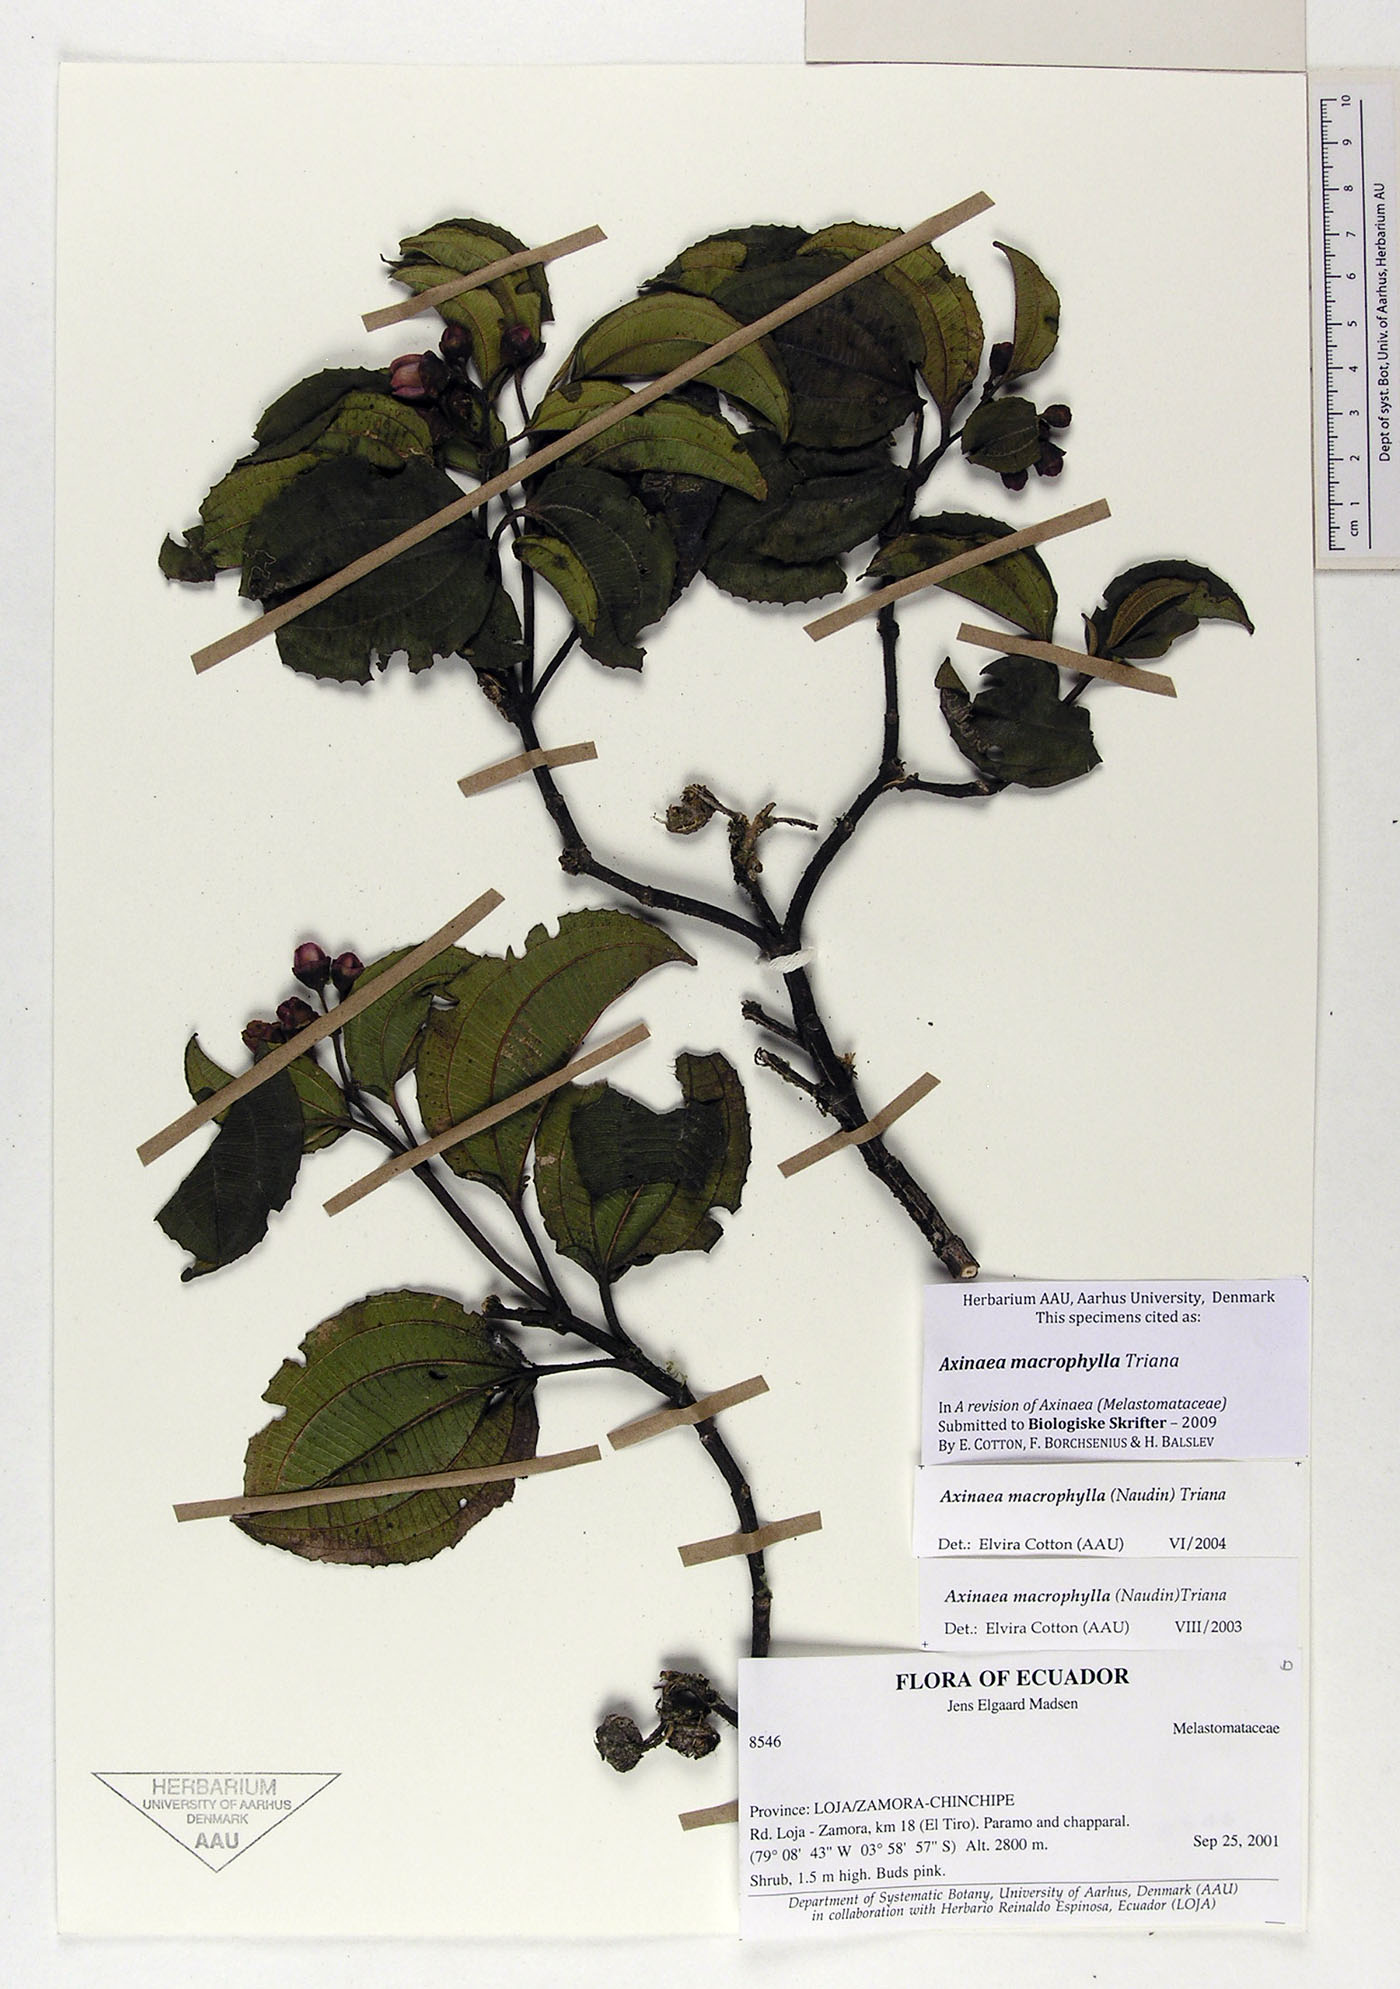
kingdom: Plantae
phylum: Tracheophyta
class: Magnoliopsida
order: Myrtales
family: Melastomataceae
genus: Axinaea
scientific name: Axinaea macrophylla
